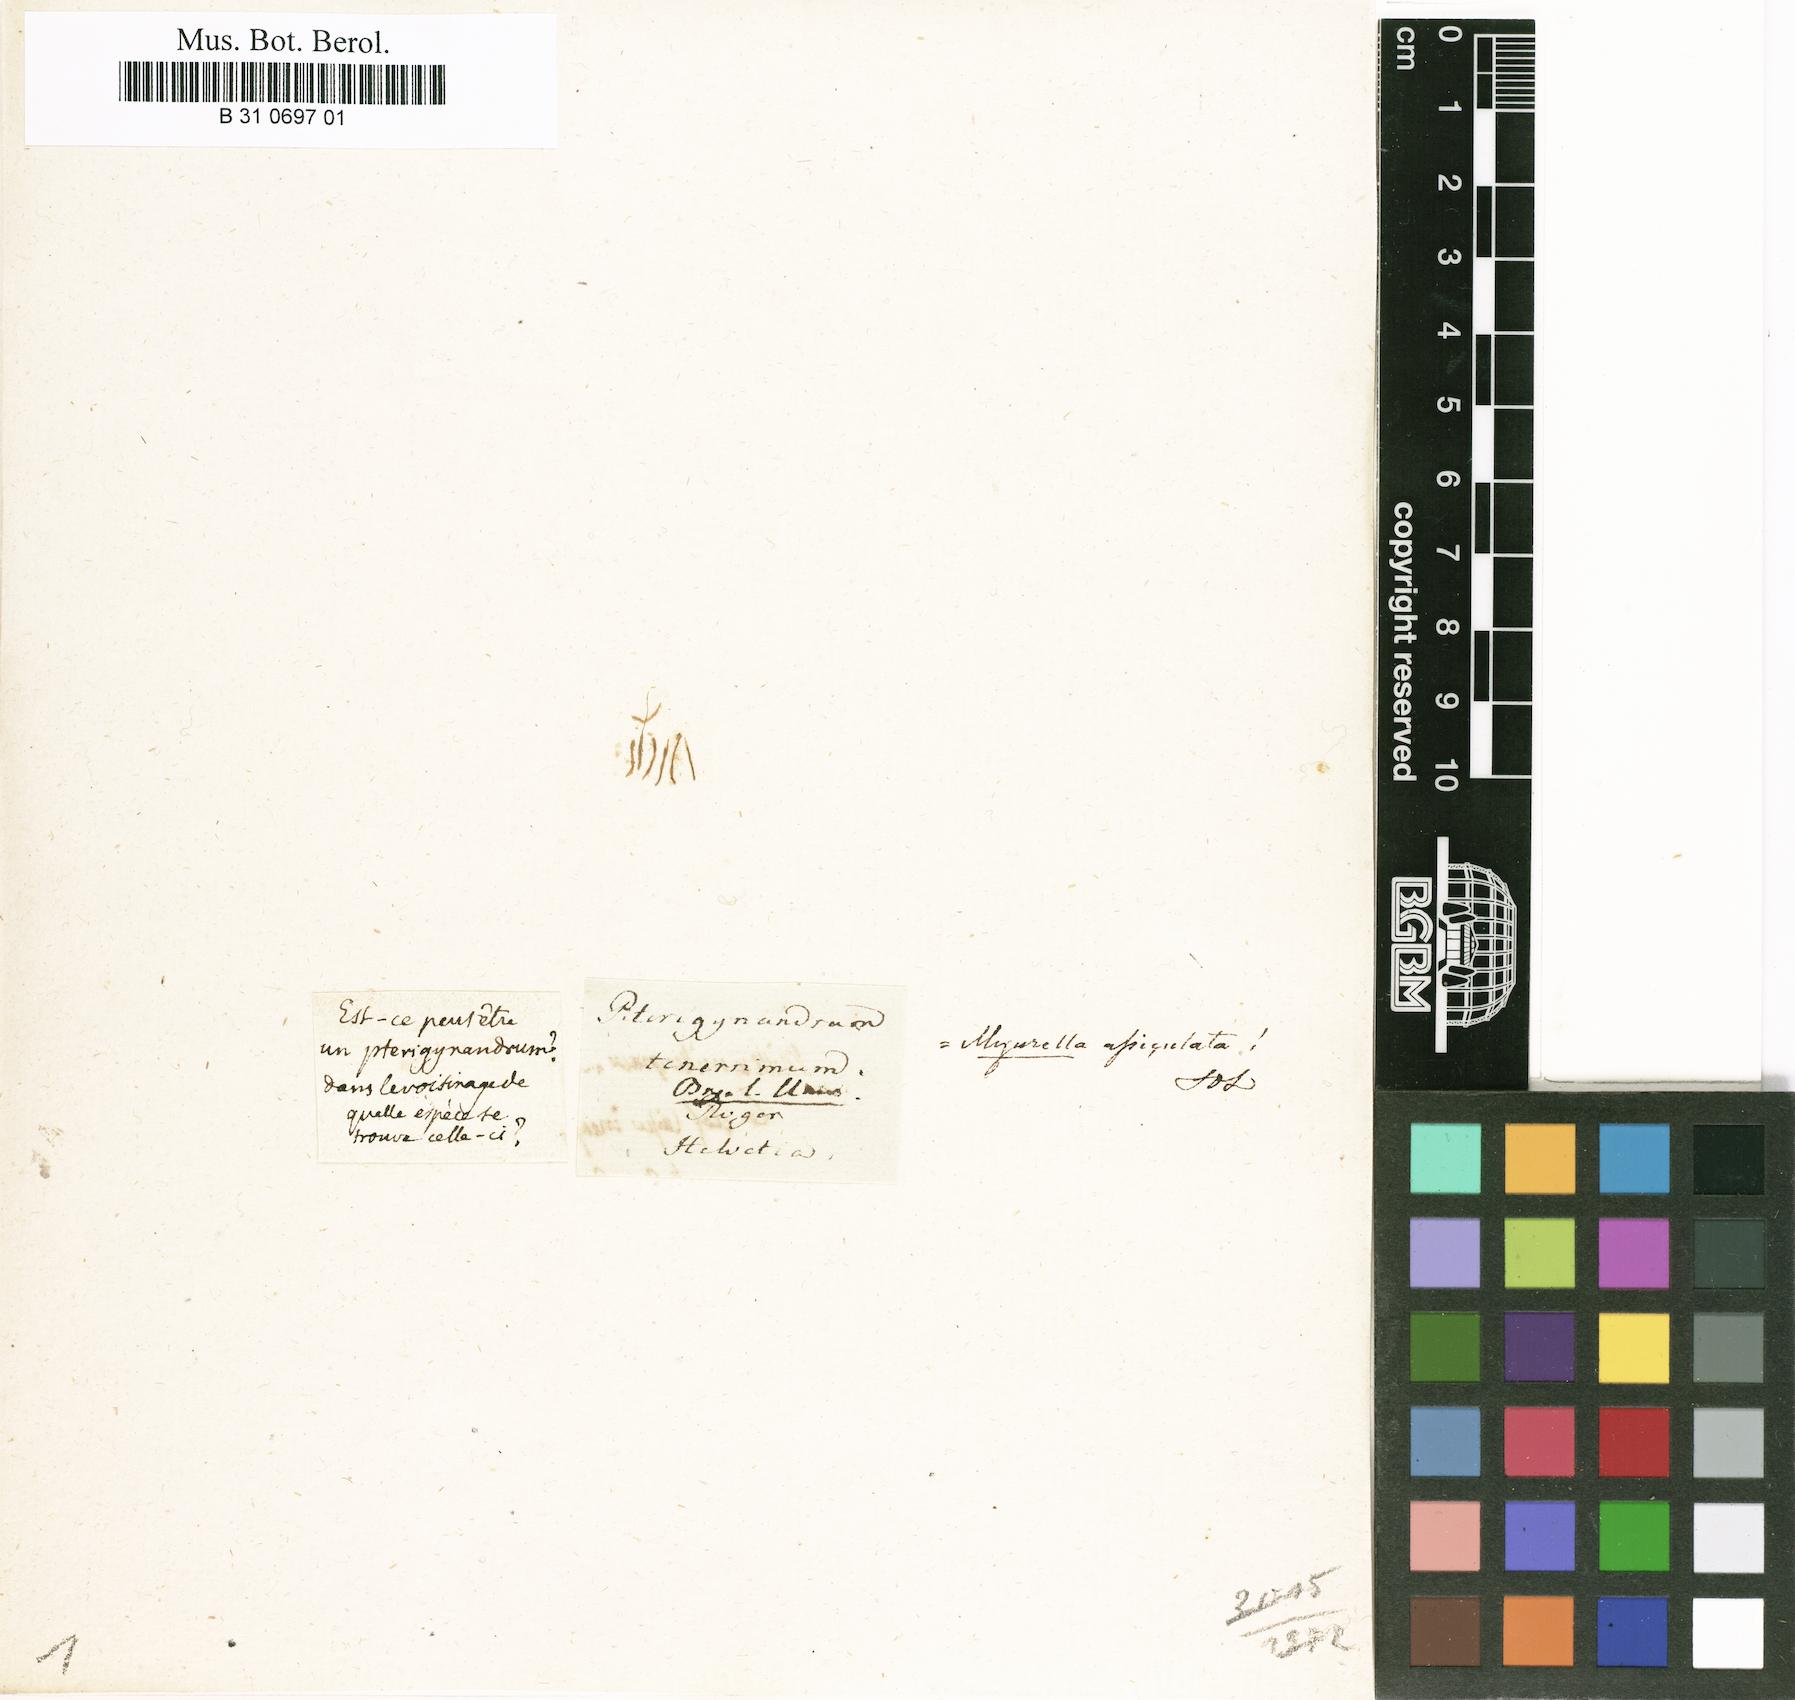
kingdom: Plantae
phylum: Bryophyta
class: Bryopsida
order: Hypnales
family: Plagiotheciaceae
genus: Myurella
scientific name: Myurella tenerrima
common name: Dwarf mousetail moss
